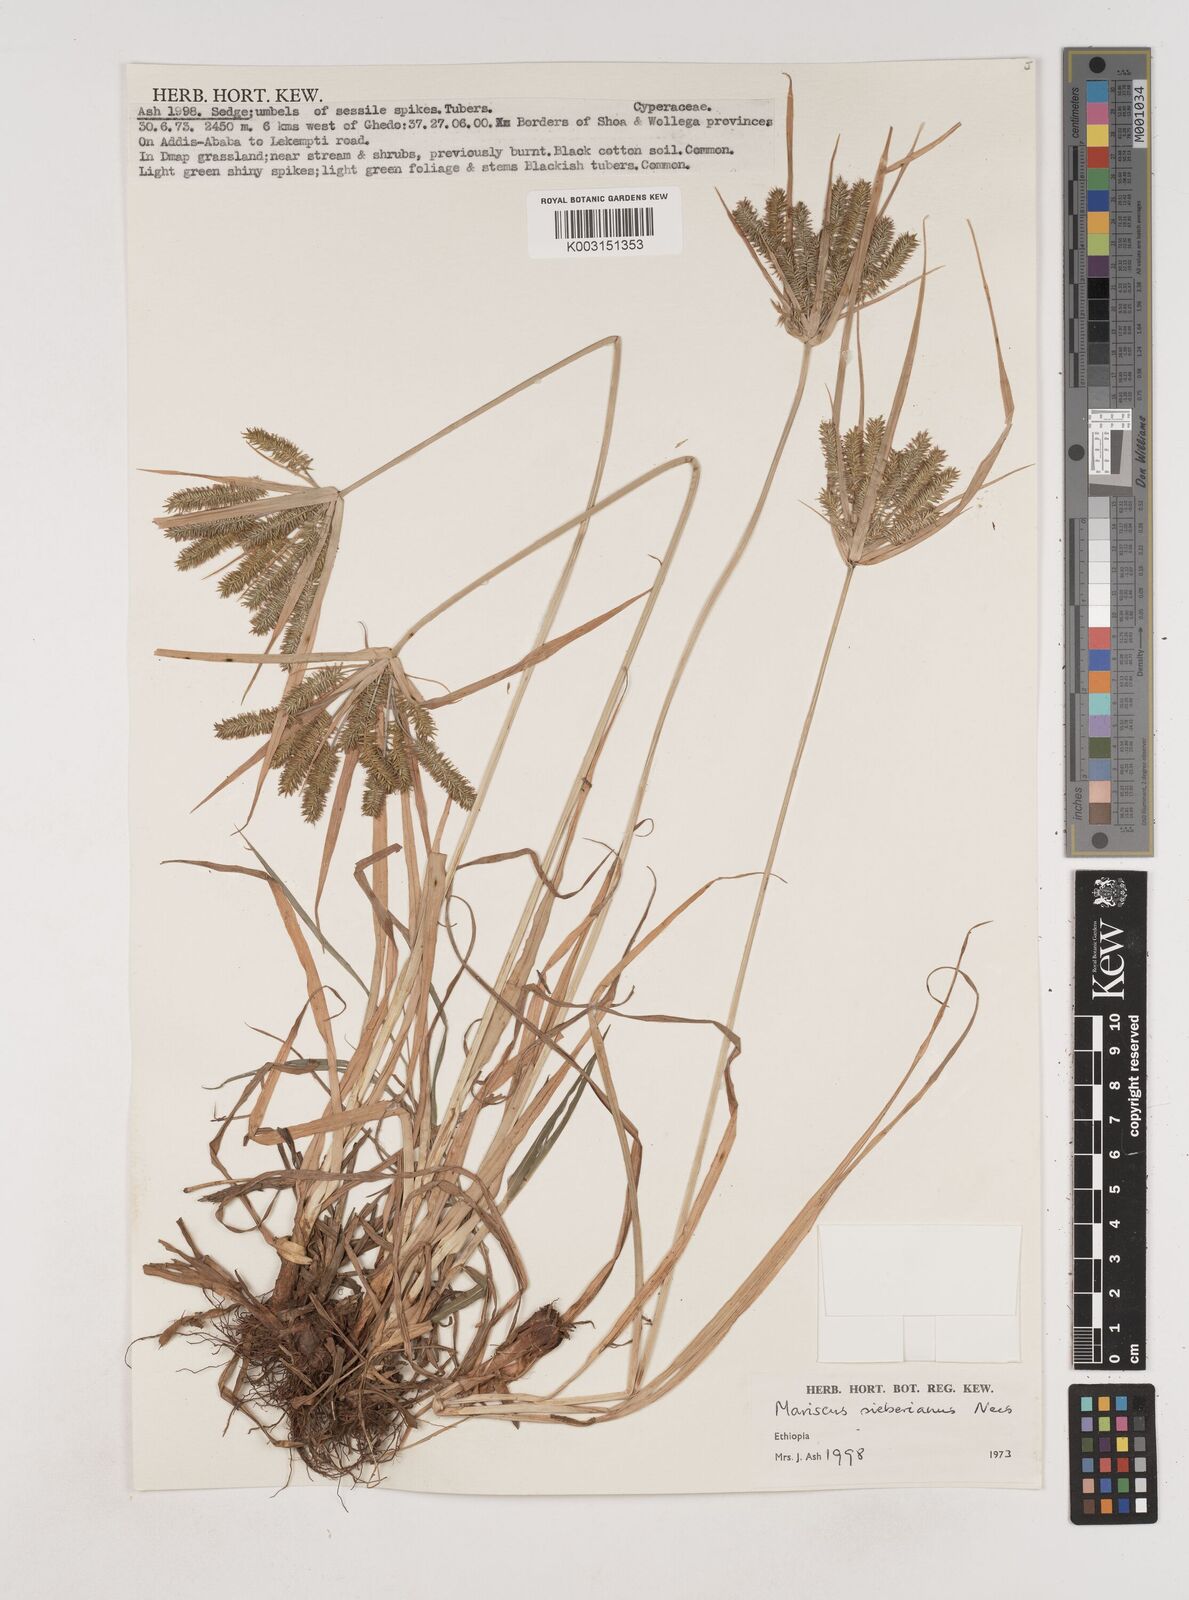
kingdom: Plantae
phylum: Tracheophyta
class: Liliopsida
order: Poales
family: Cyperaceae
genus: Cyperus
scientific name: Cyperus cyperoides
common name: Pacific island flat sedge
